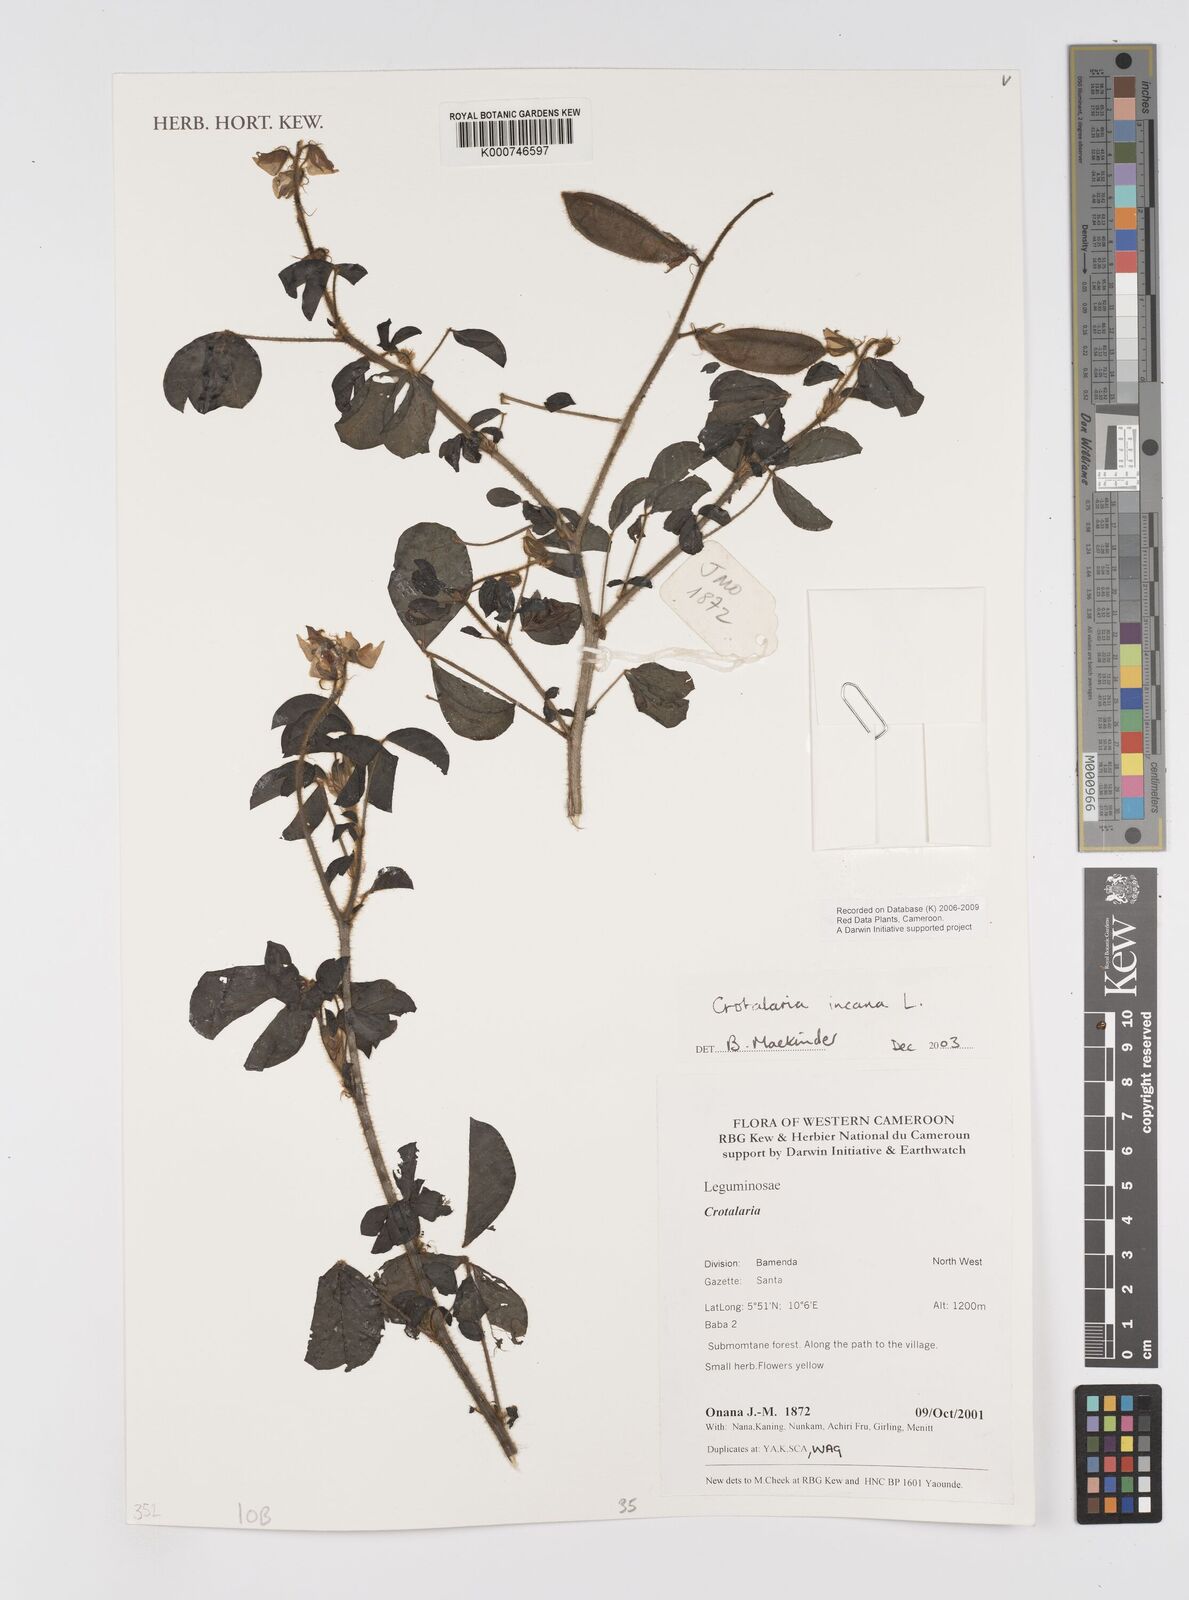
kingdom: Plantae
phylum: Tracheophyta
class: Magnoliopsida
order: Fabales
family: Fabaceae
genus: Crotalaria
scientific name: Crotalaria incana
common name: Shakeshake
